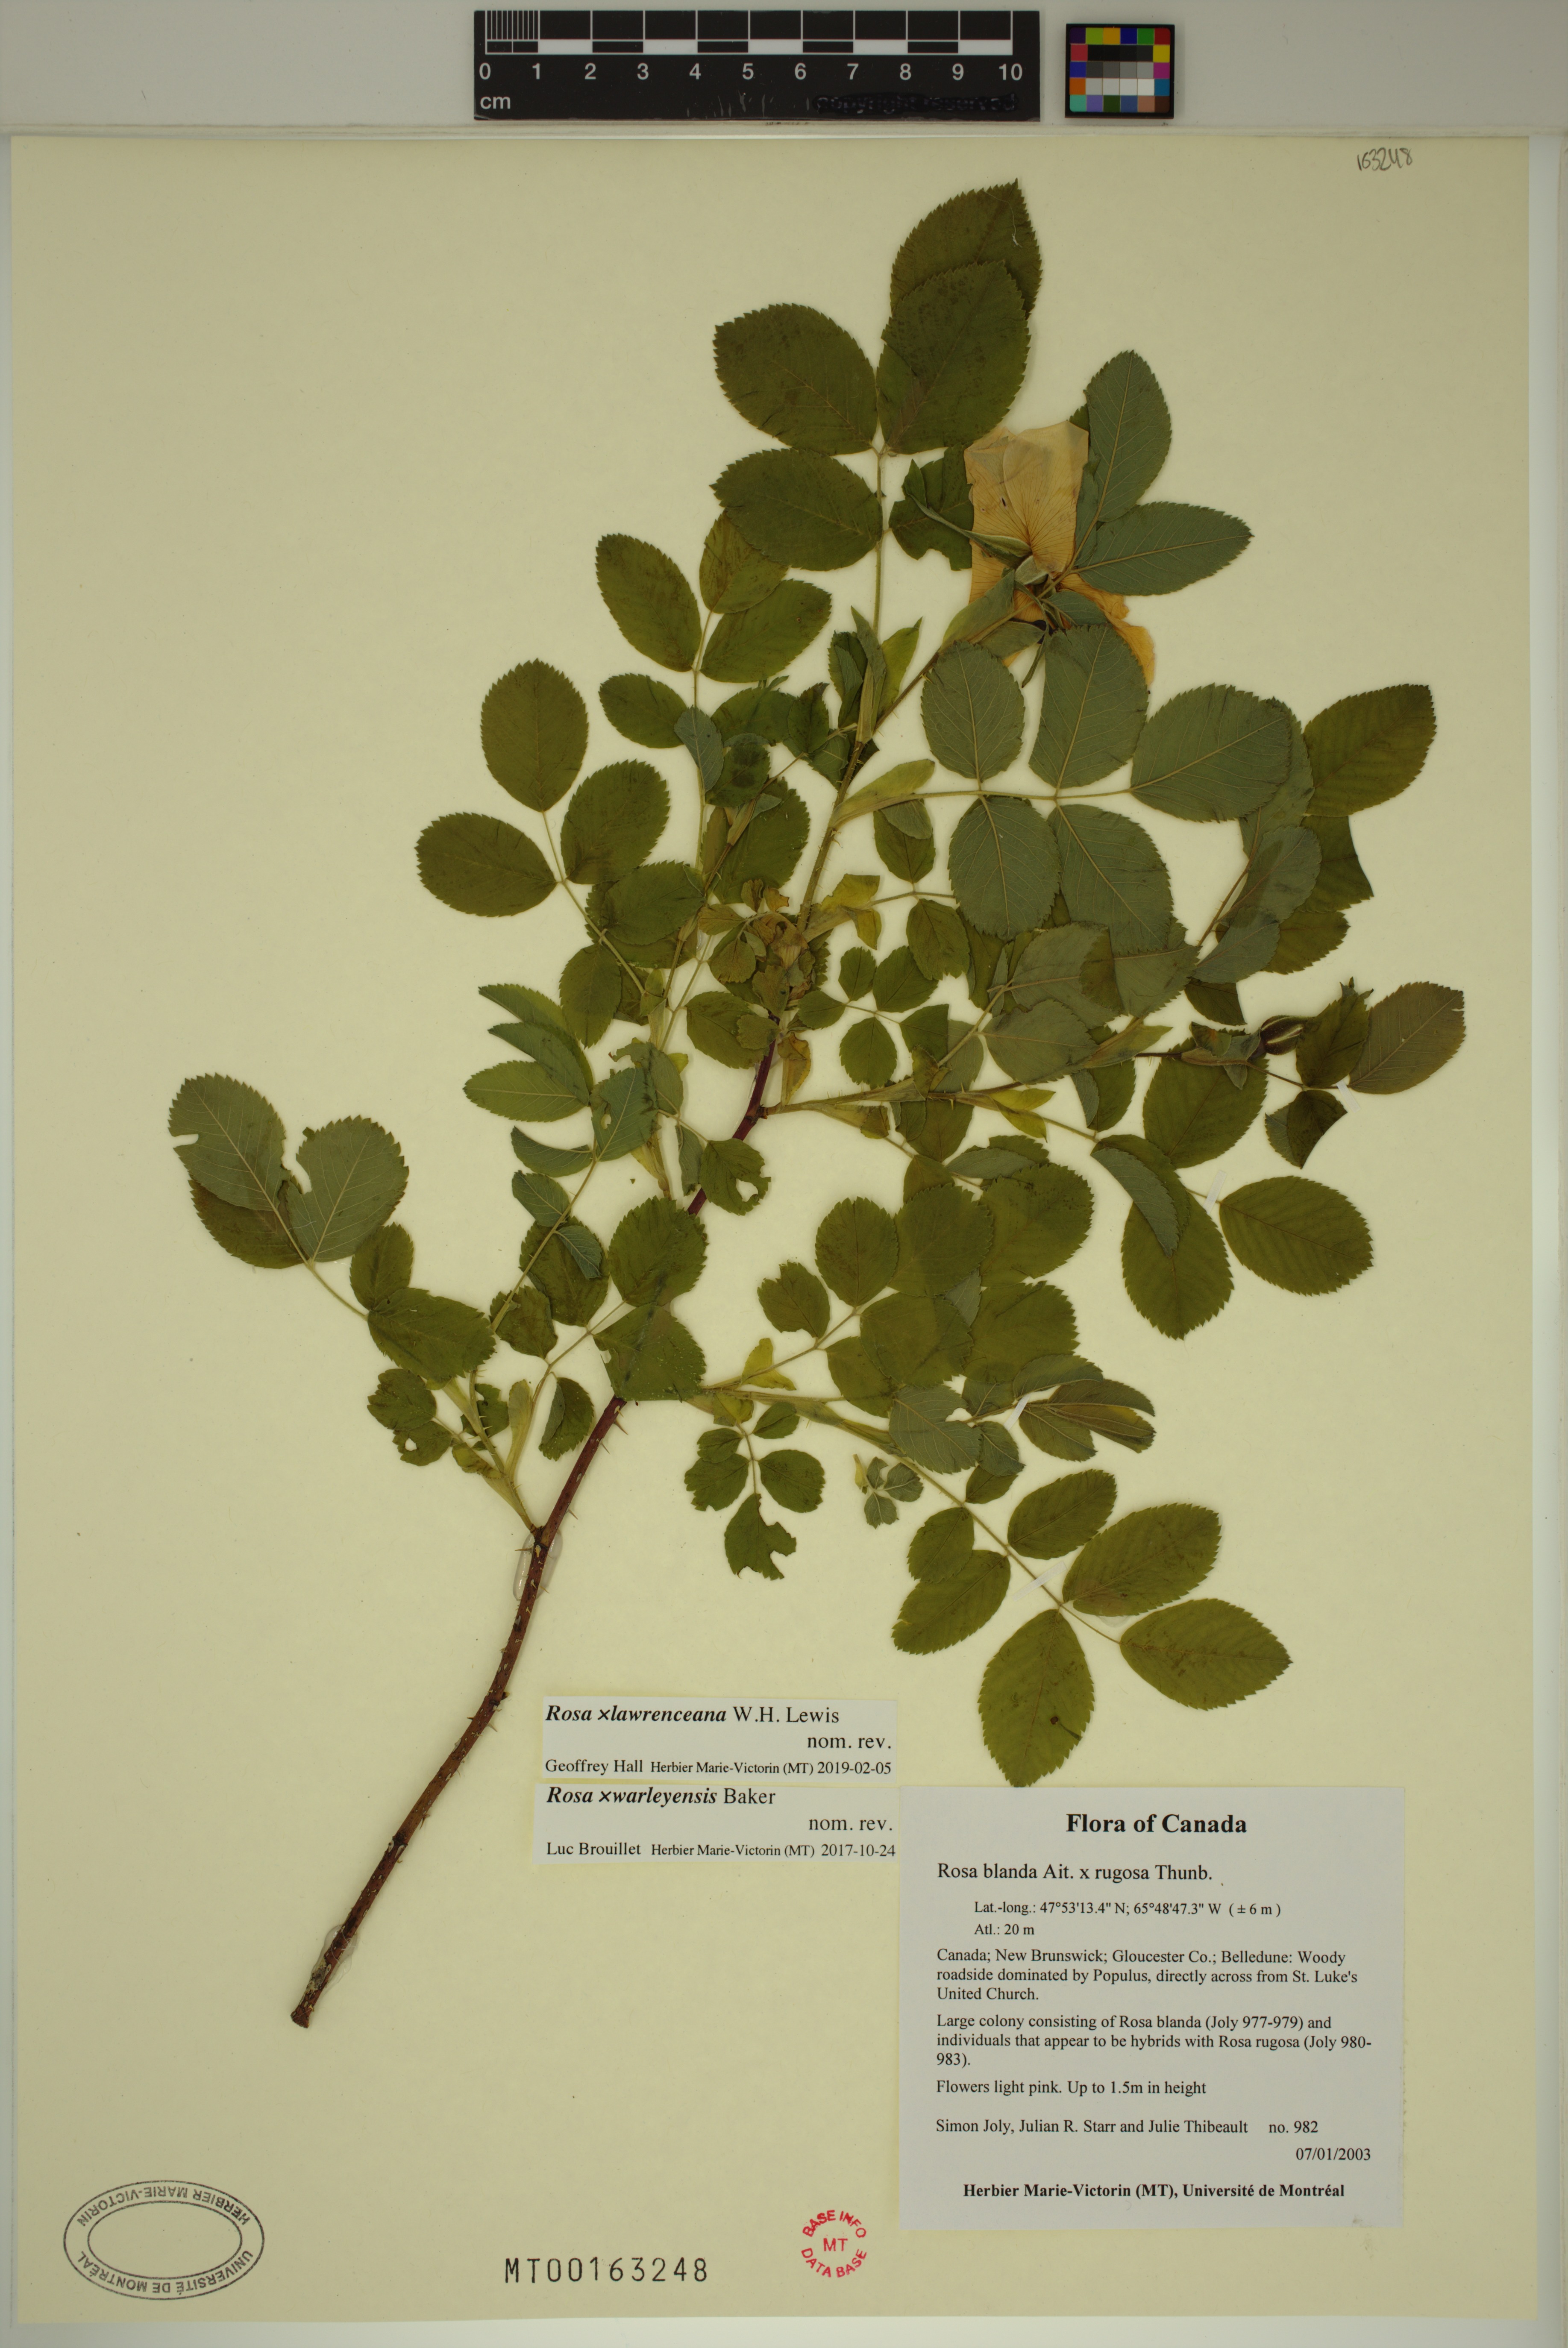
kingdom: Plantae
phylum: Tracheophyta
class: Magnoliopsida
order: Rosales
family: Rosaceae
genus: Rosa
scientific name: Rosa chinensis
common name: China rose
